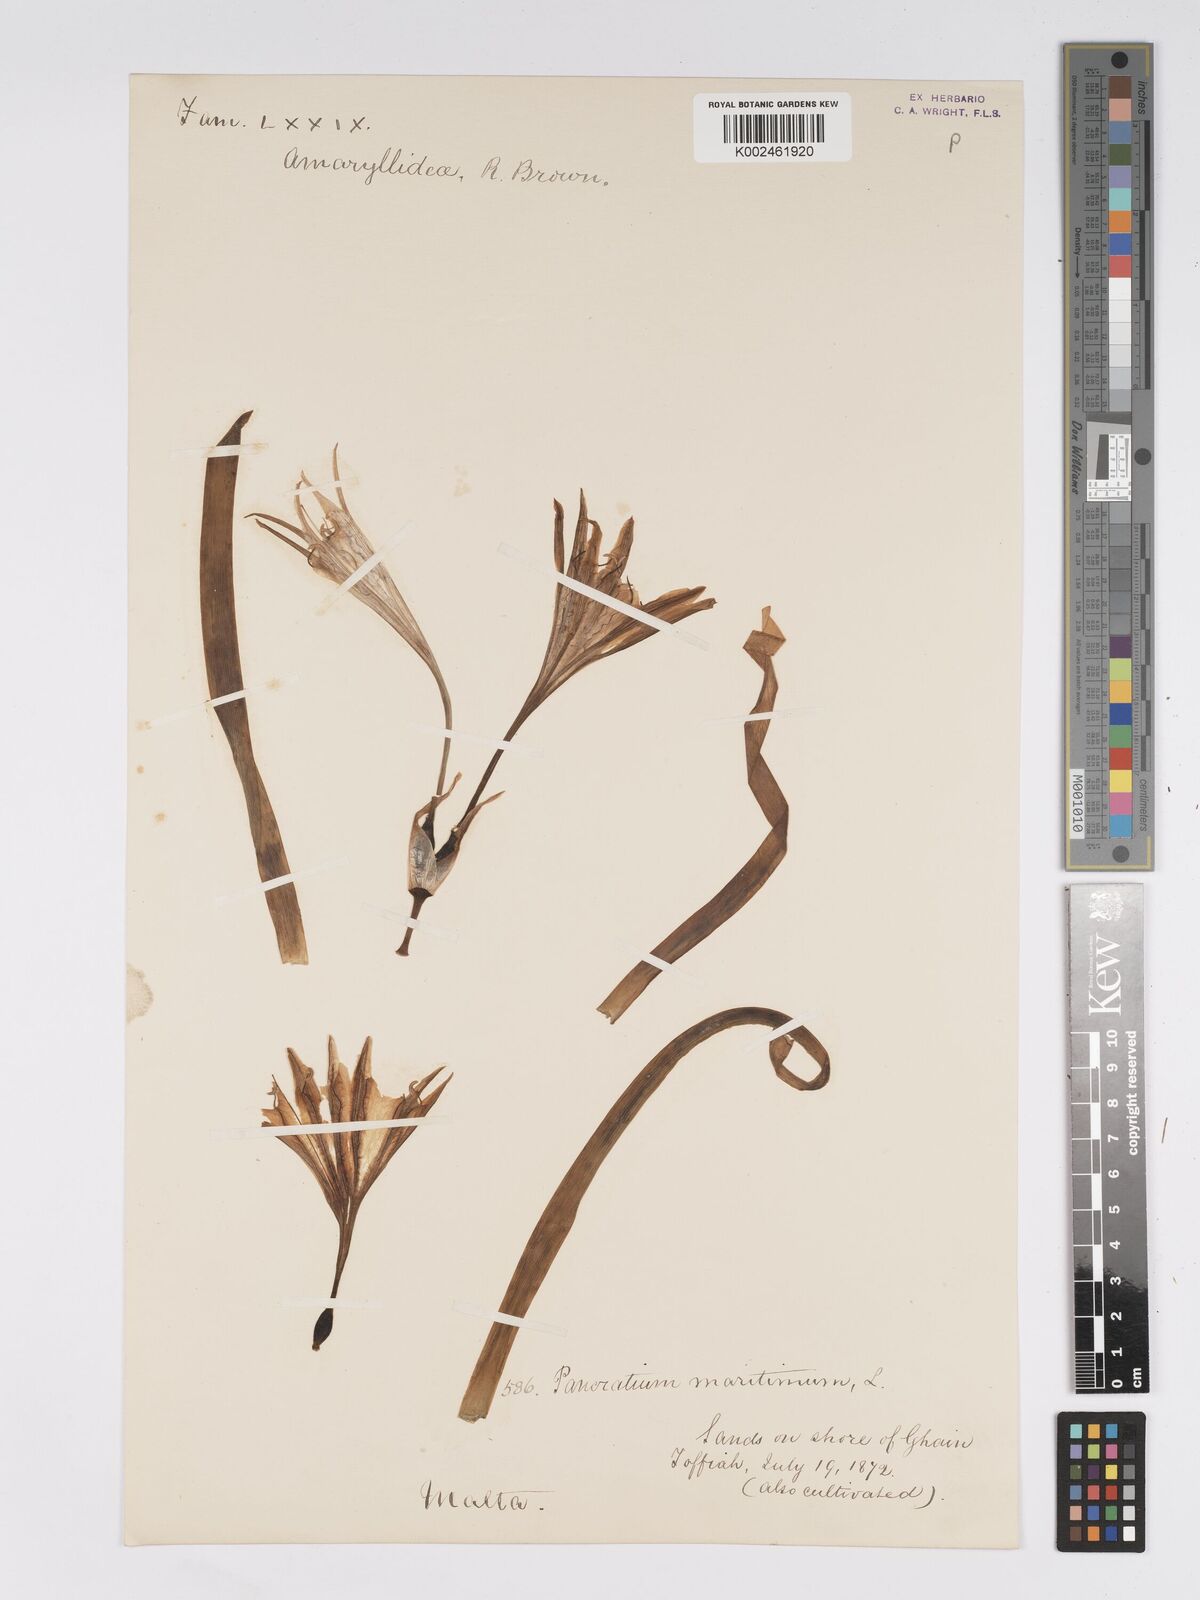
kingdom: Plantae
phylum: Tracheophyta
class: Liliopsida
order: Asparagales
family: Amaryllidaceae
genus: Pancratium
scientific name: Pancratium maritimum
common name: Sea-daffodil
